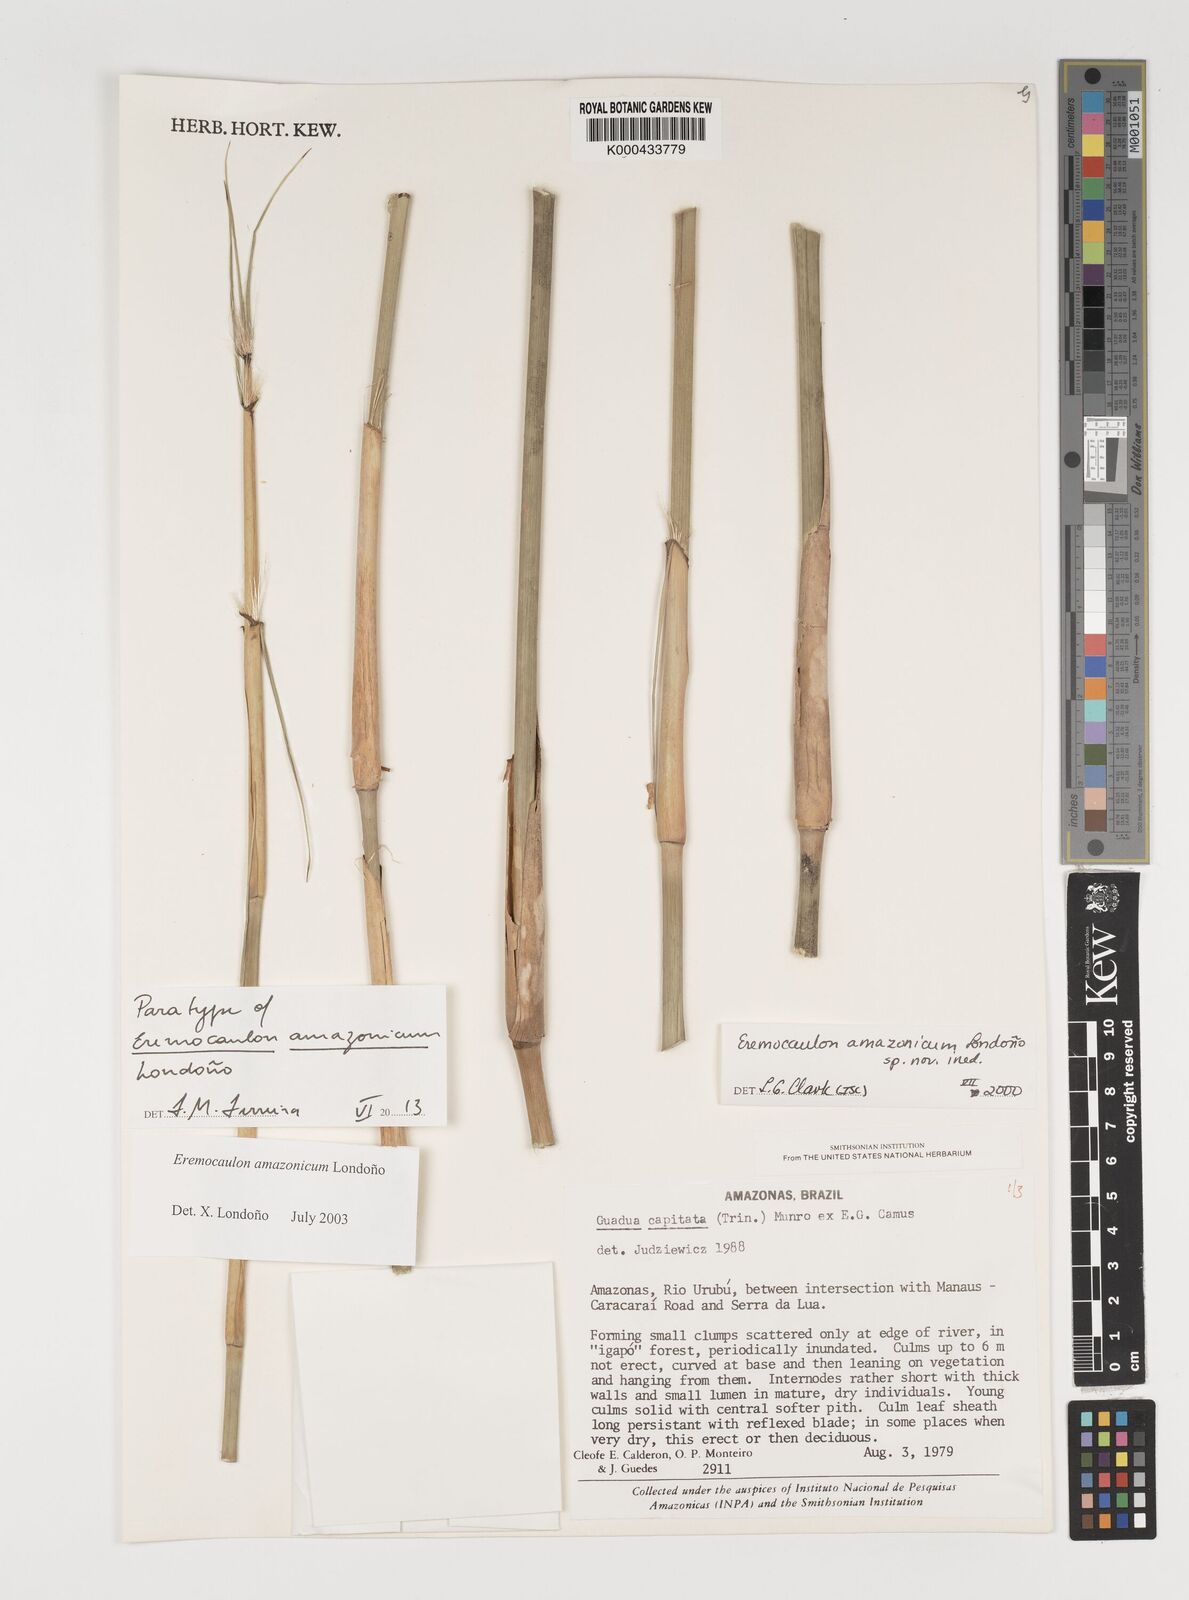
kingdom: Plantae
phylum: Tracheophyta
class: Liliopsida
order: Poales
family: Poaceae
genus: Eremocaulon
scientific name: Eremocaulon
